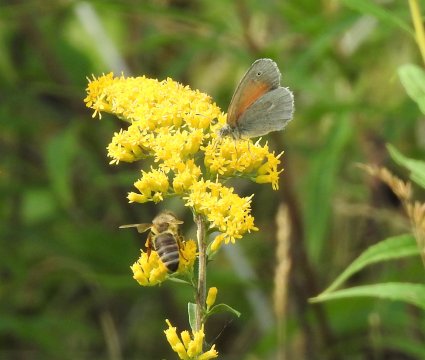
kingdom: Animalia
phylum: Arthropoda
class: Insecta
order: Lepidoptera
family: Nymphalidae
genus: Coenonympha
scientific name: Coenonympha tullia
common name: Large Heath
